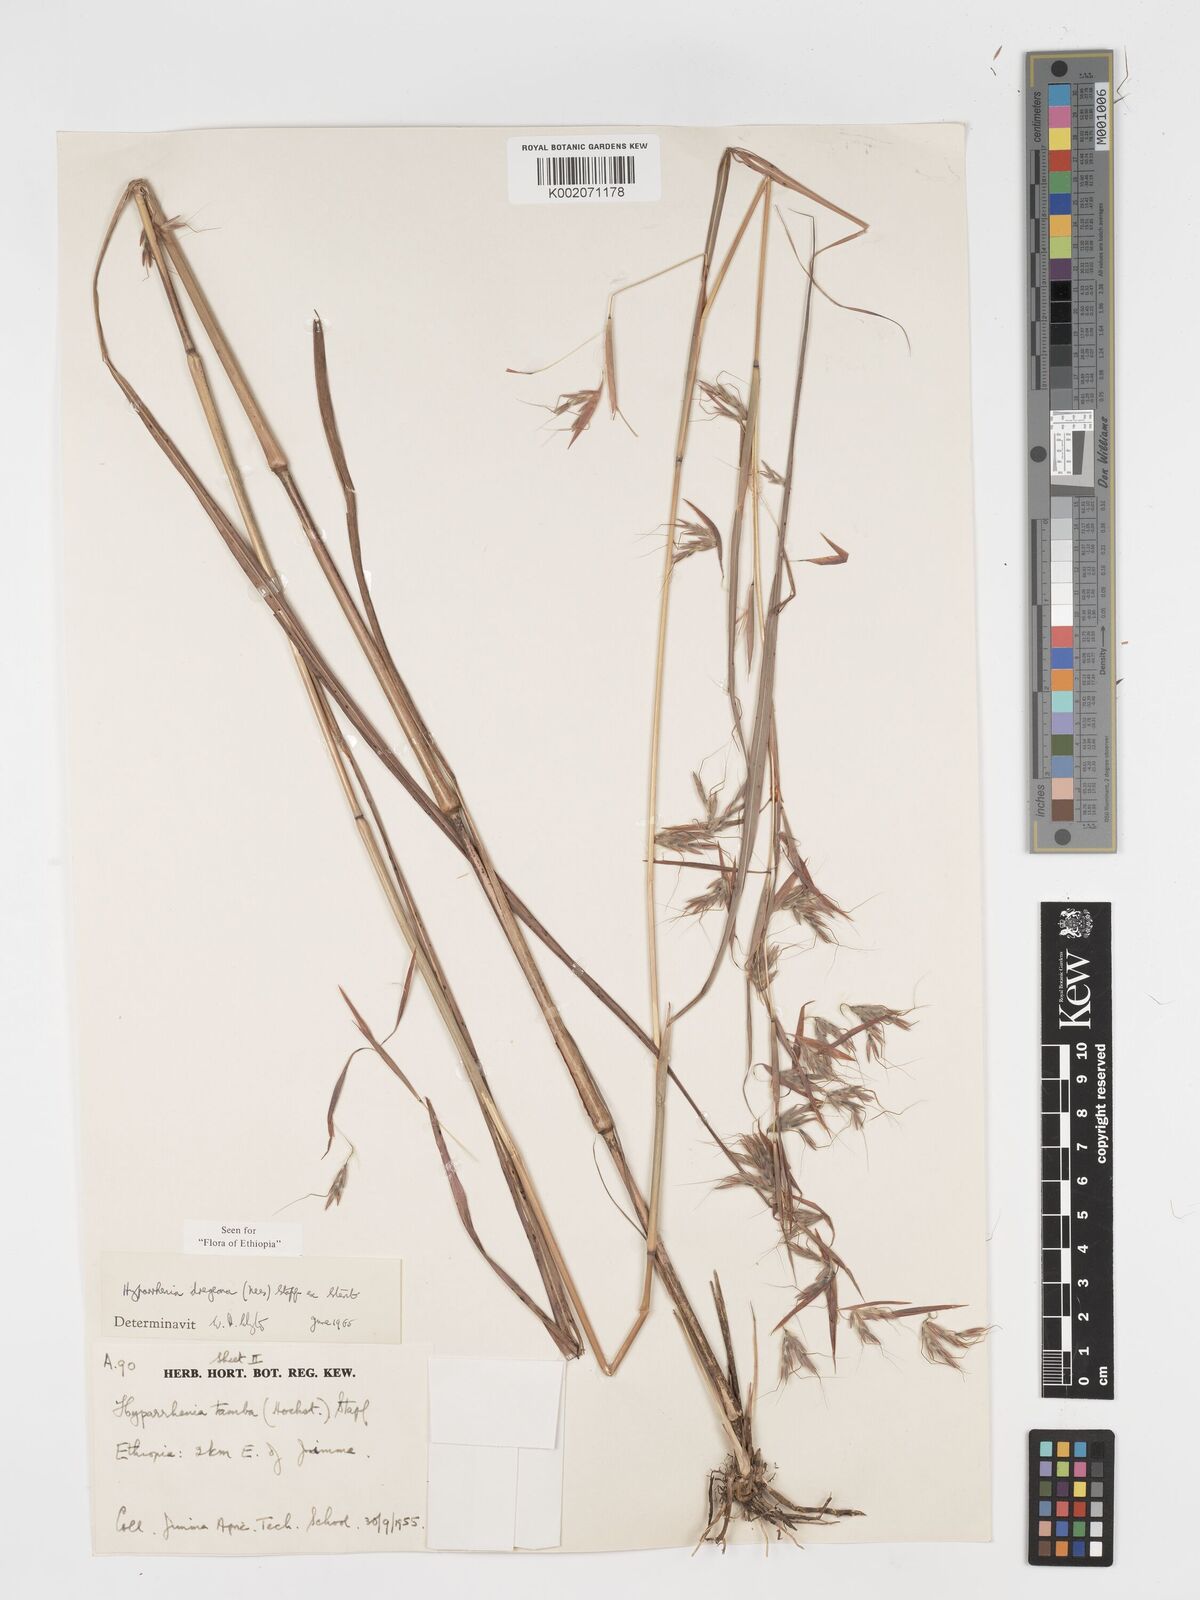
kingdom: Plantae
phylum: Tracheophyta
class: Liliopsida
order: Poales
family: Poaceae
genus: Hyparrhenia
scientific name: Hyparrhenia dregeana
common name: Silky thatching grass
